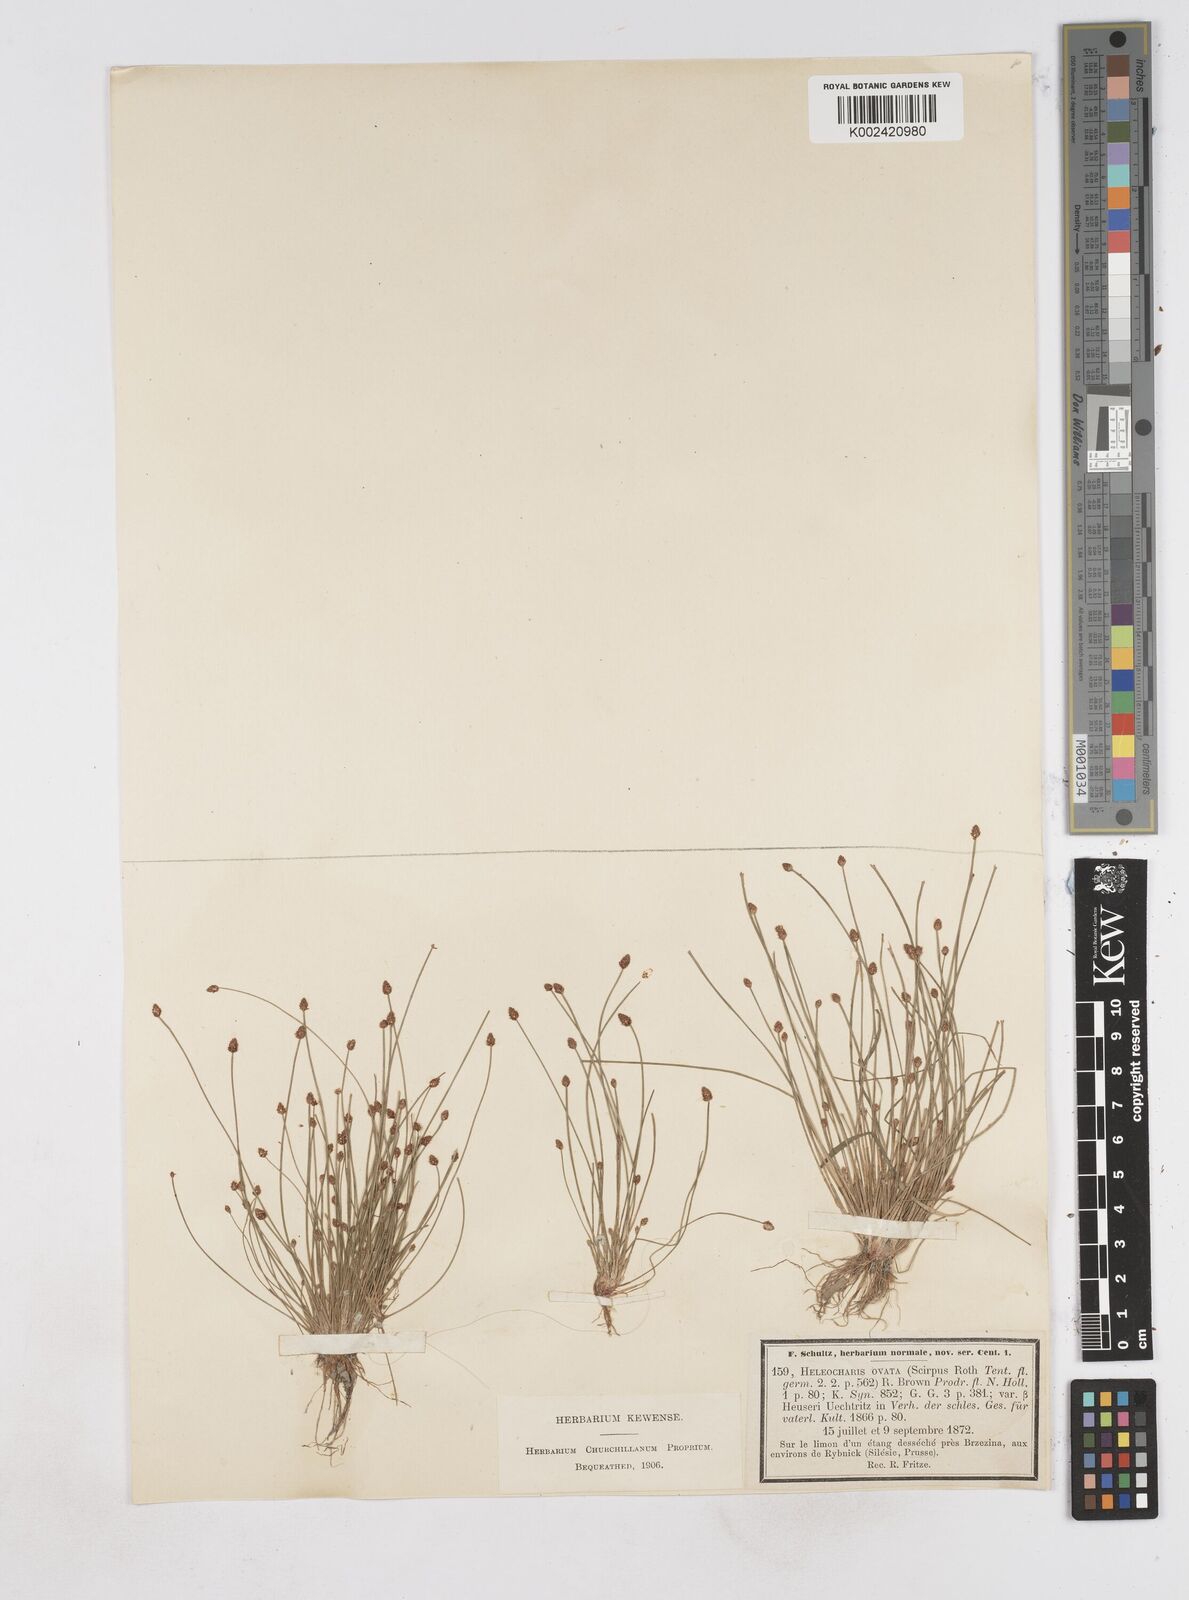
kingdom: Plantae
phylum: Tracheophyta
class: Liliopsida
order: Poales
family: Cyperaceae
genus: Eleocharis
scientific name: Eleocharis ovata
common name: Oval spike-rush
